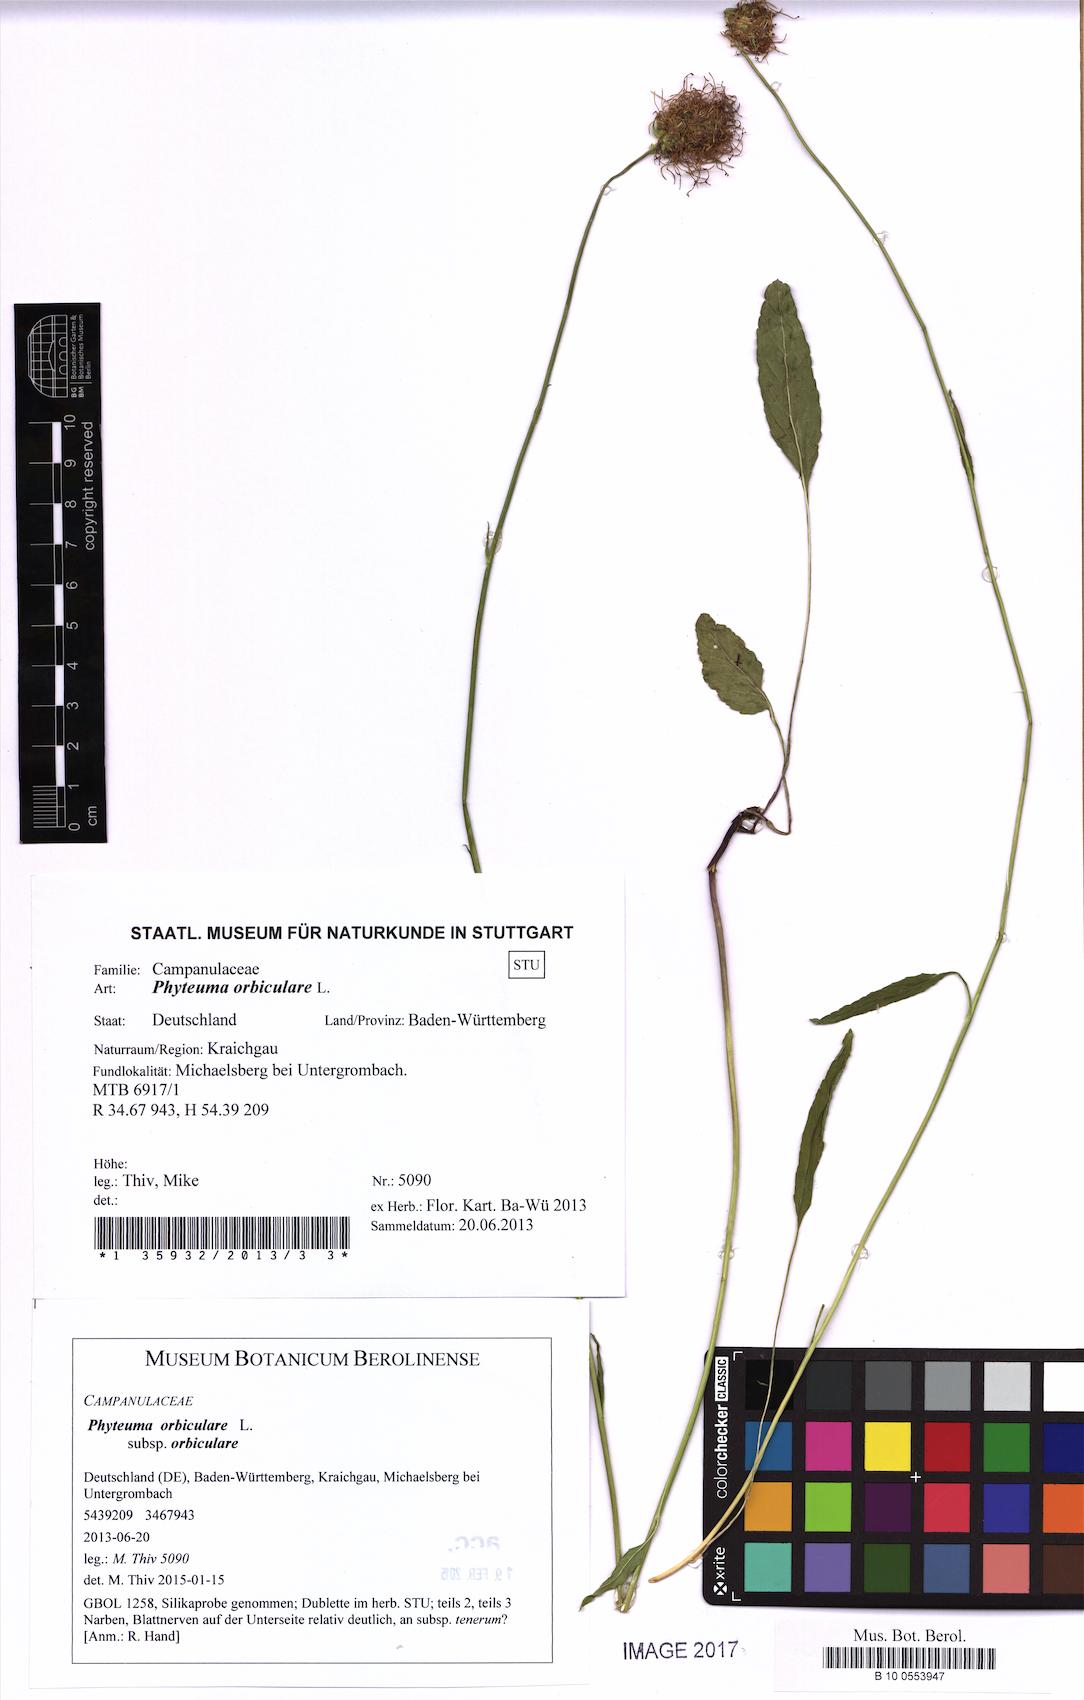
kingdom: Plantae
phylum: Tracheophyta
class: Magnoliopsida
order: Asterales
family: Campanulaceae
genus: Phyteuma
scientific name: Phyteuma orbiculare
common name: Round-headed rampion
